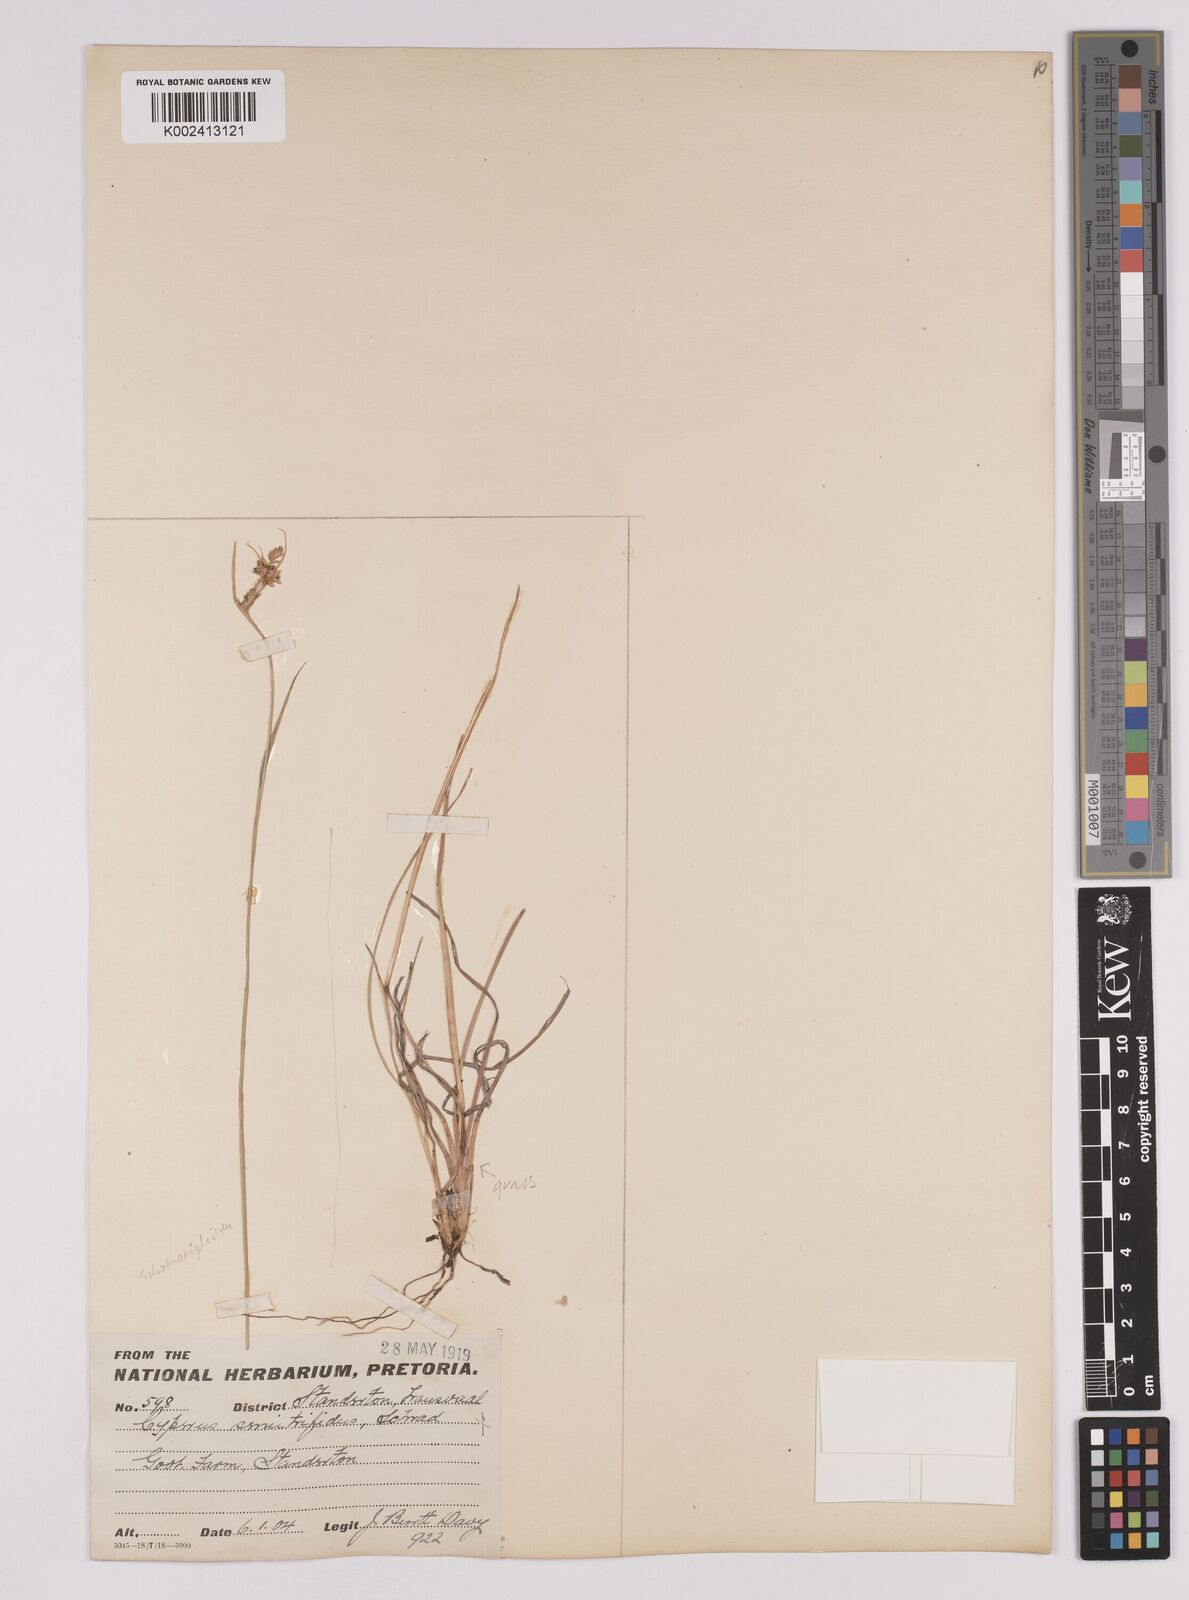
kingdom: Plantae
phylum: Tracheophyta
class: Liliopsida
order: Poales
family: Cyperaceae
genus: Carex
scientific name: Carex spartea
